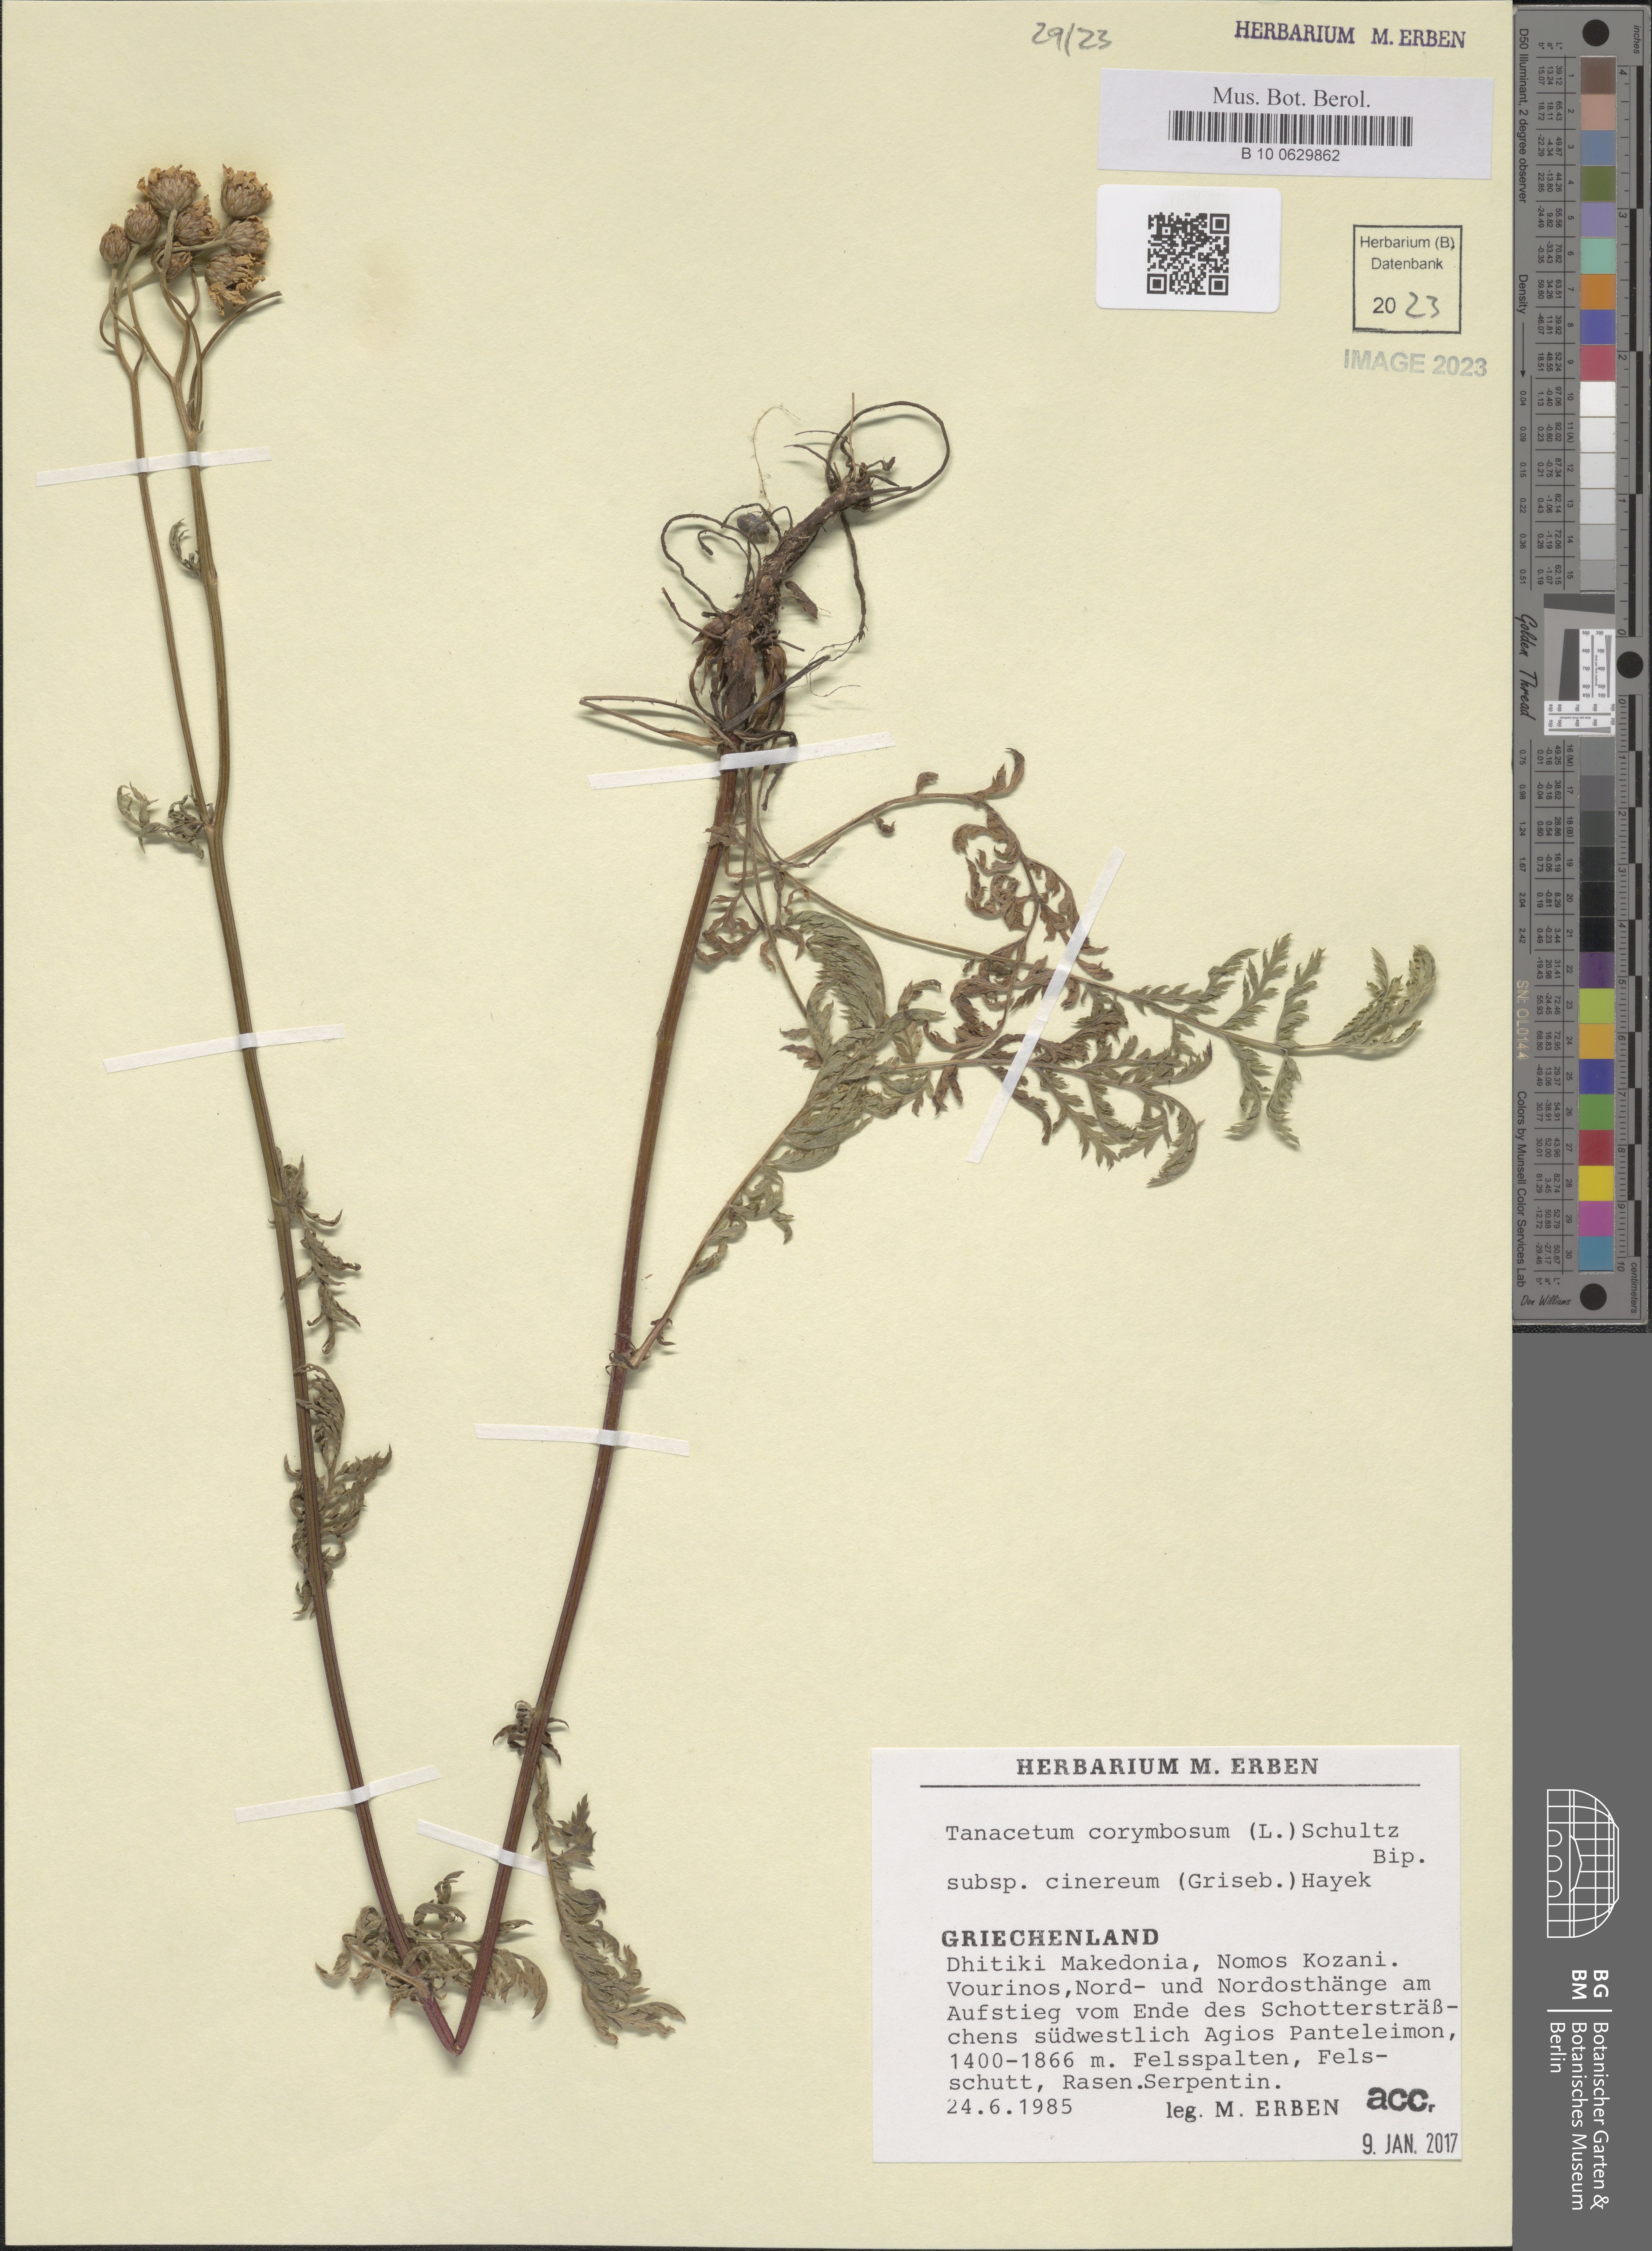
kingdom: Plantae
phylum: Tracheophyta
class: Magnoliopsida
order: Asterales
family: Asteraceae
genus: Tanacetum
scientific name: Tanacetum corymbosum
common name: Scentless feverfew
